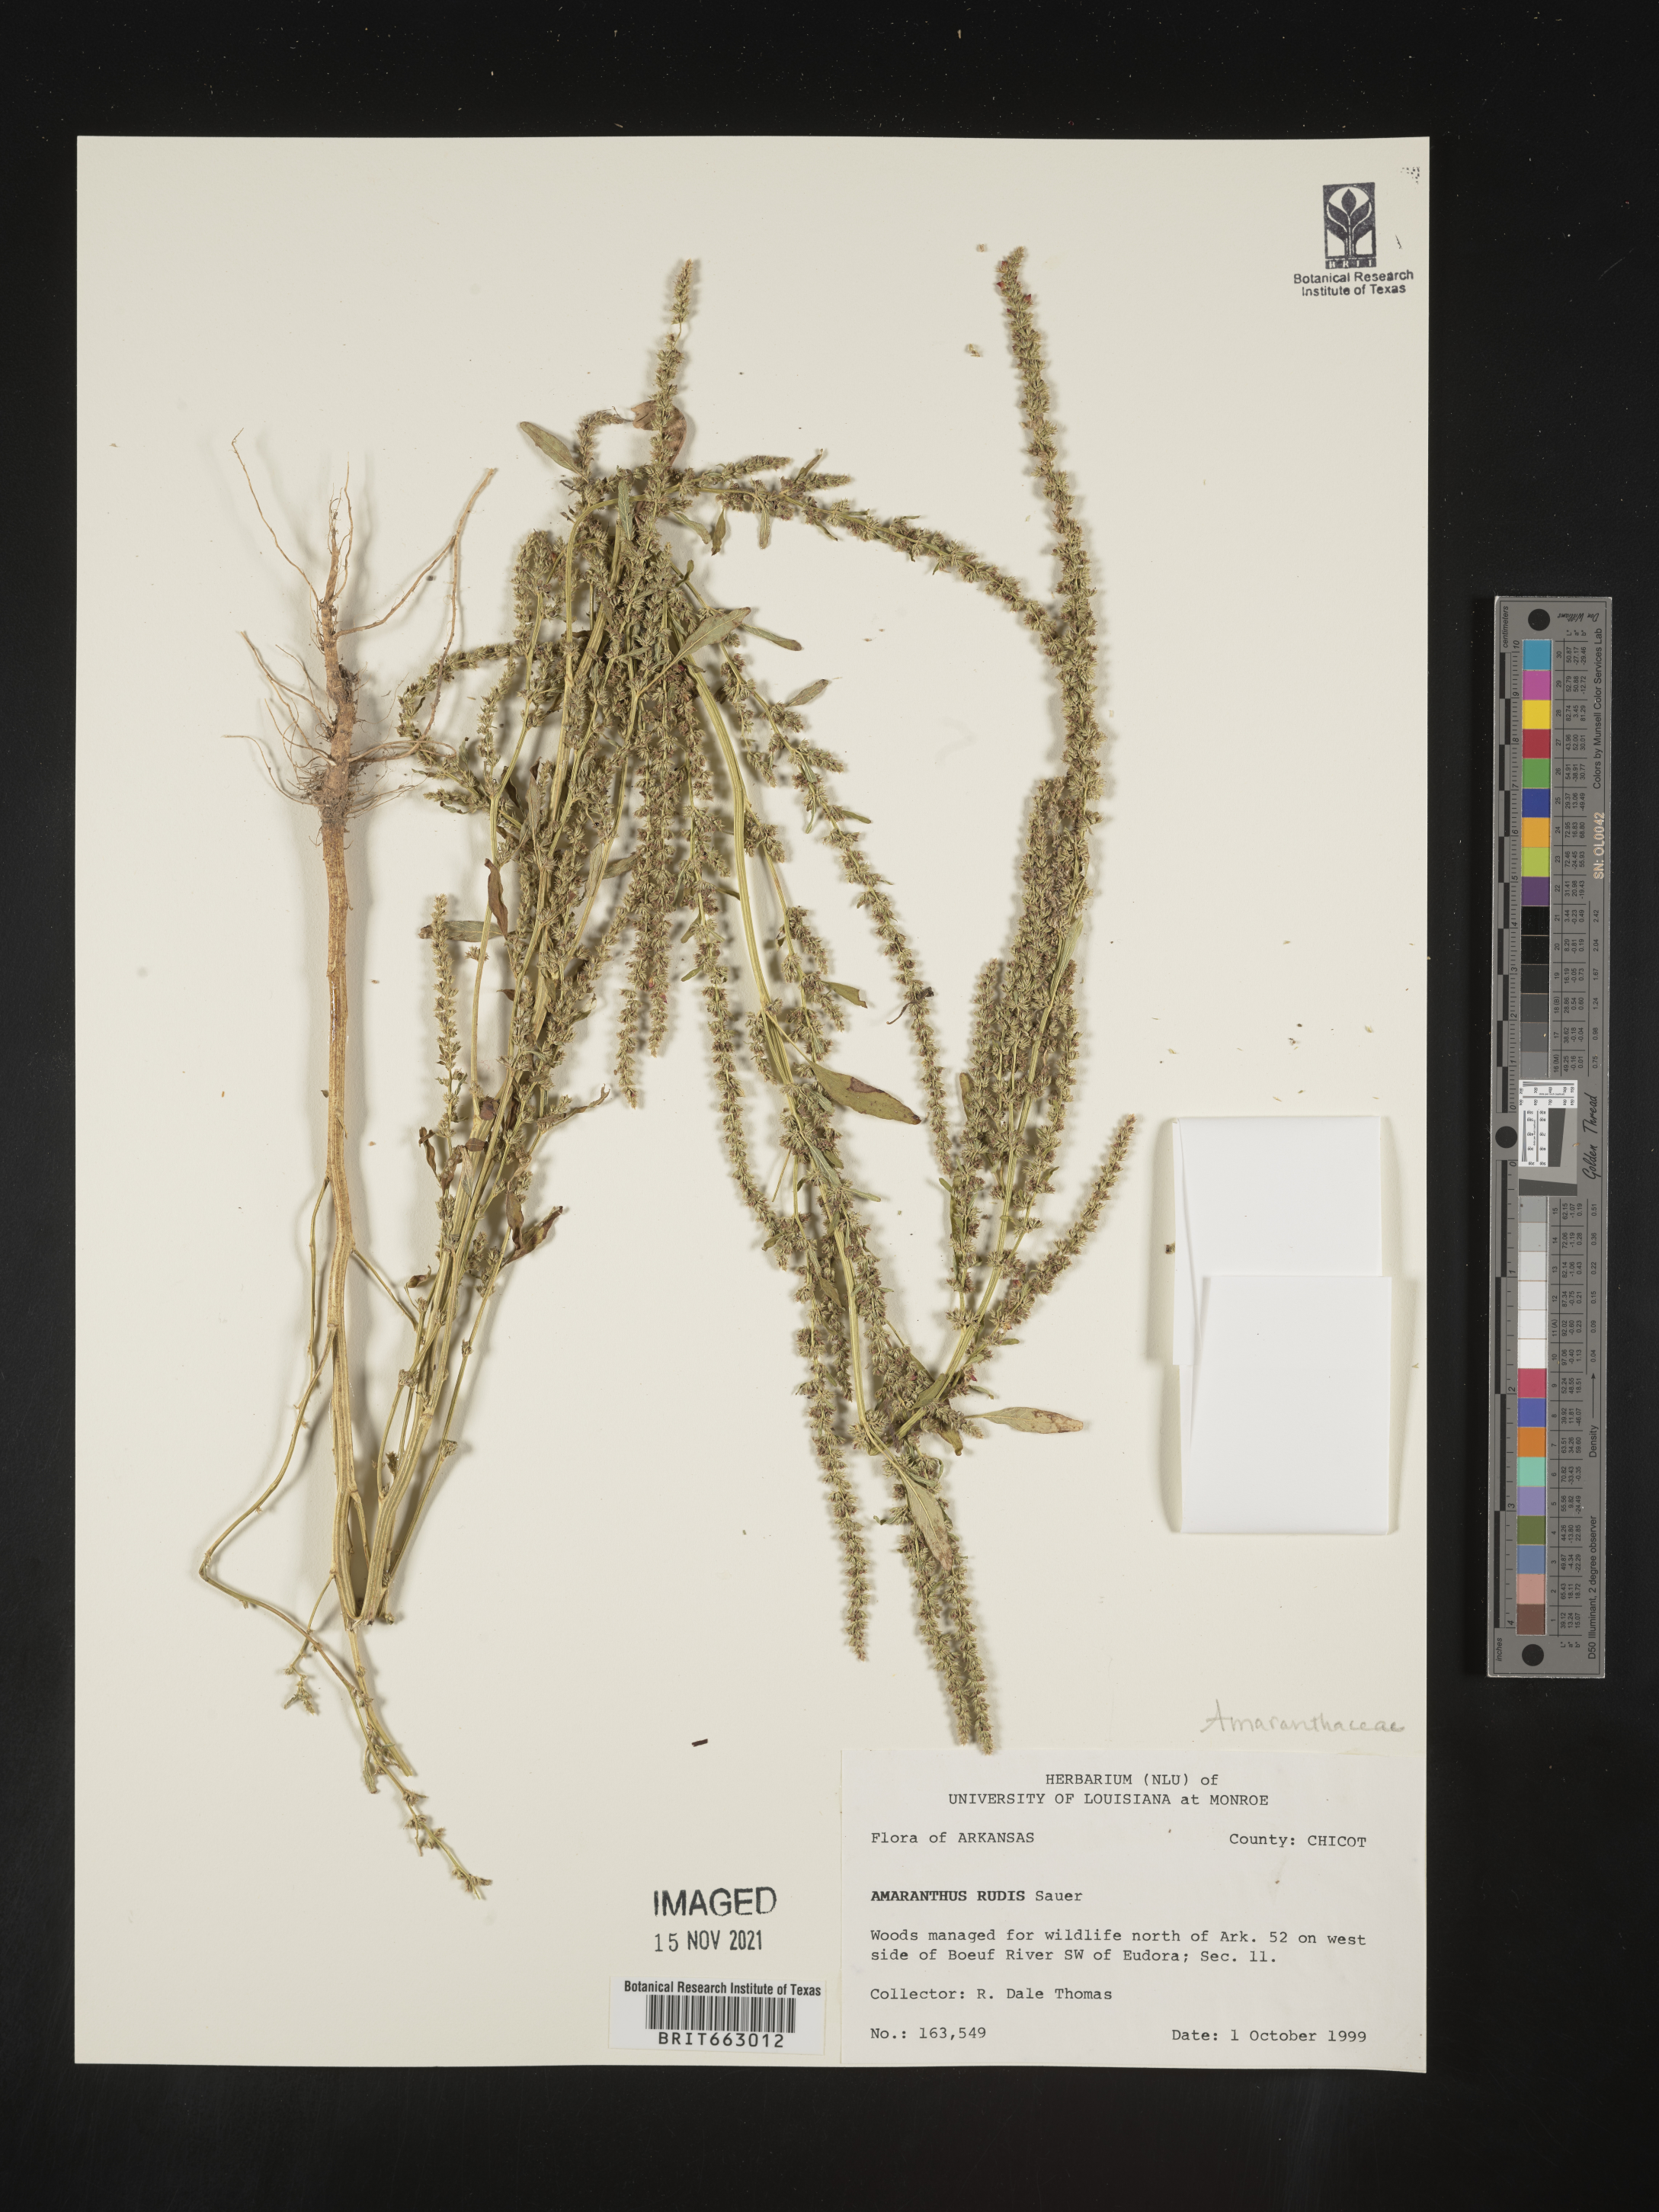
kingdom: Plantae
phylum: Tracheophyta
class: Magnoliopsida
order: Caryophyllales
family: Amaranthaceae
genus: Amaranthus
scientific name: Amaranthus tuberculatus
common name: Rough-fruit amaranth
